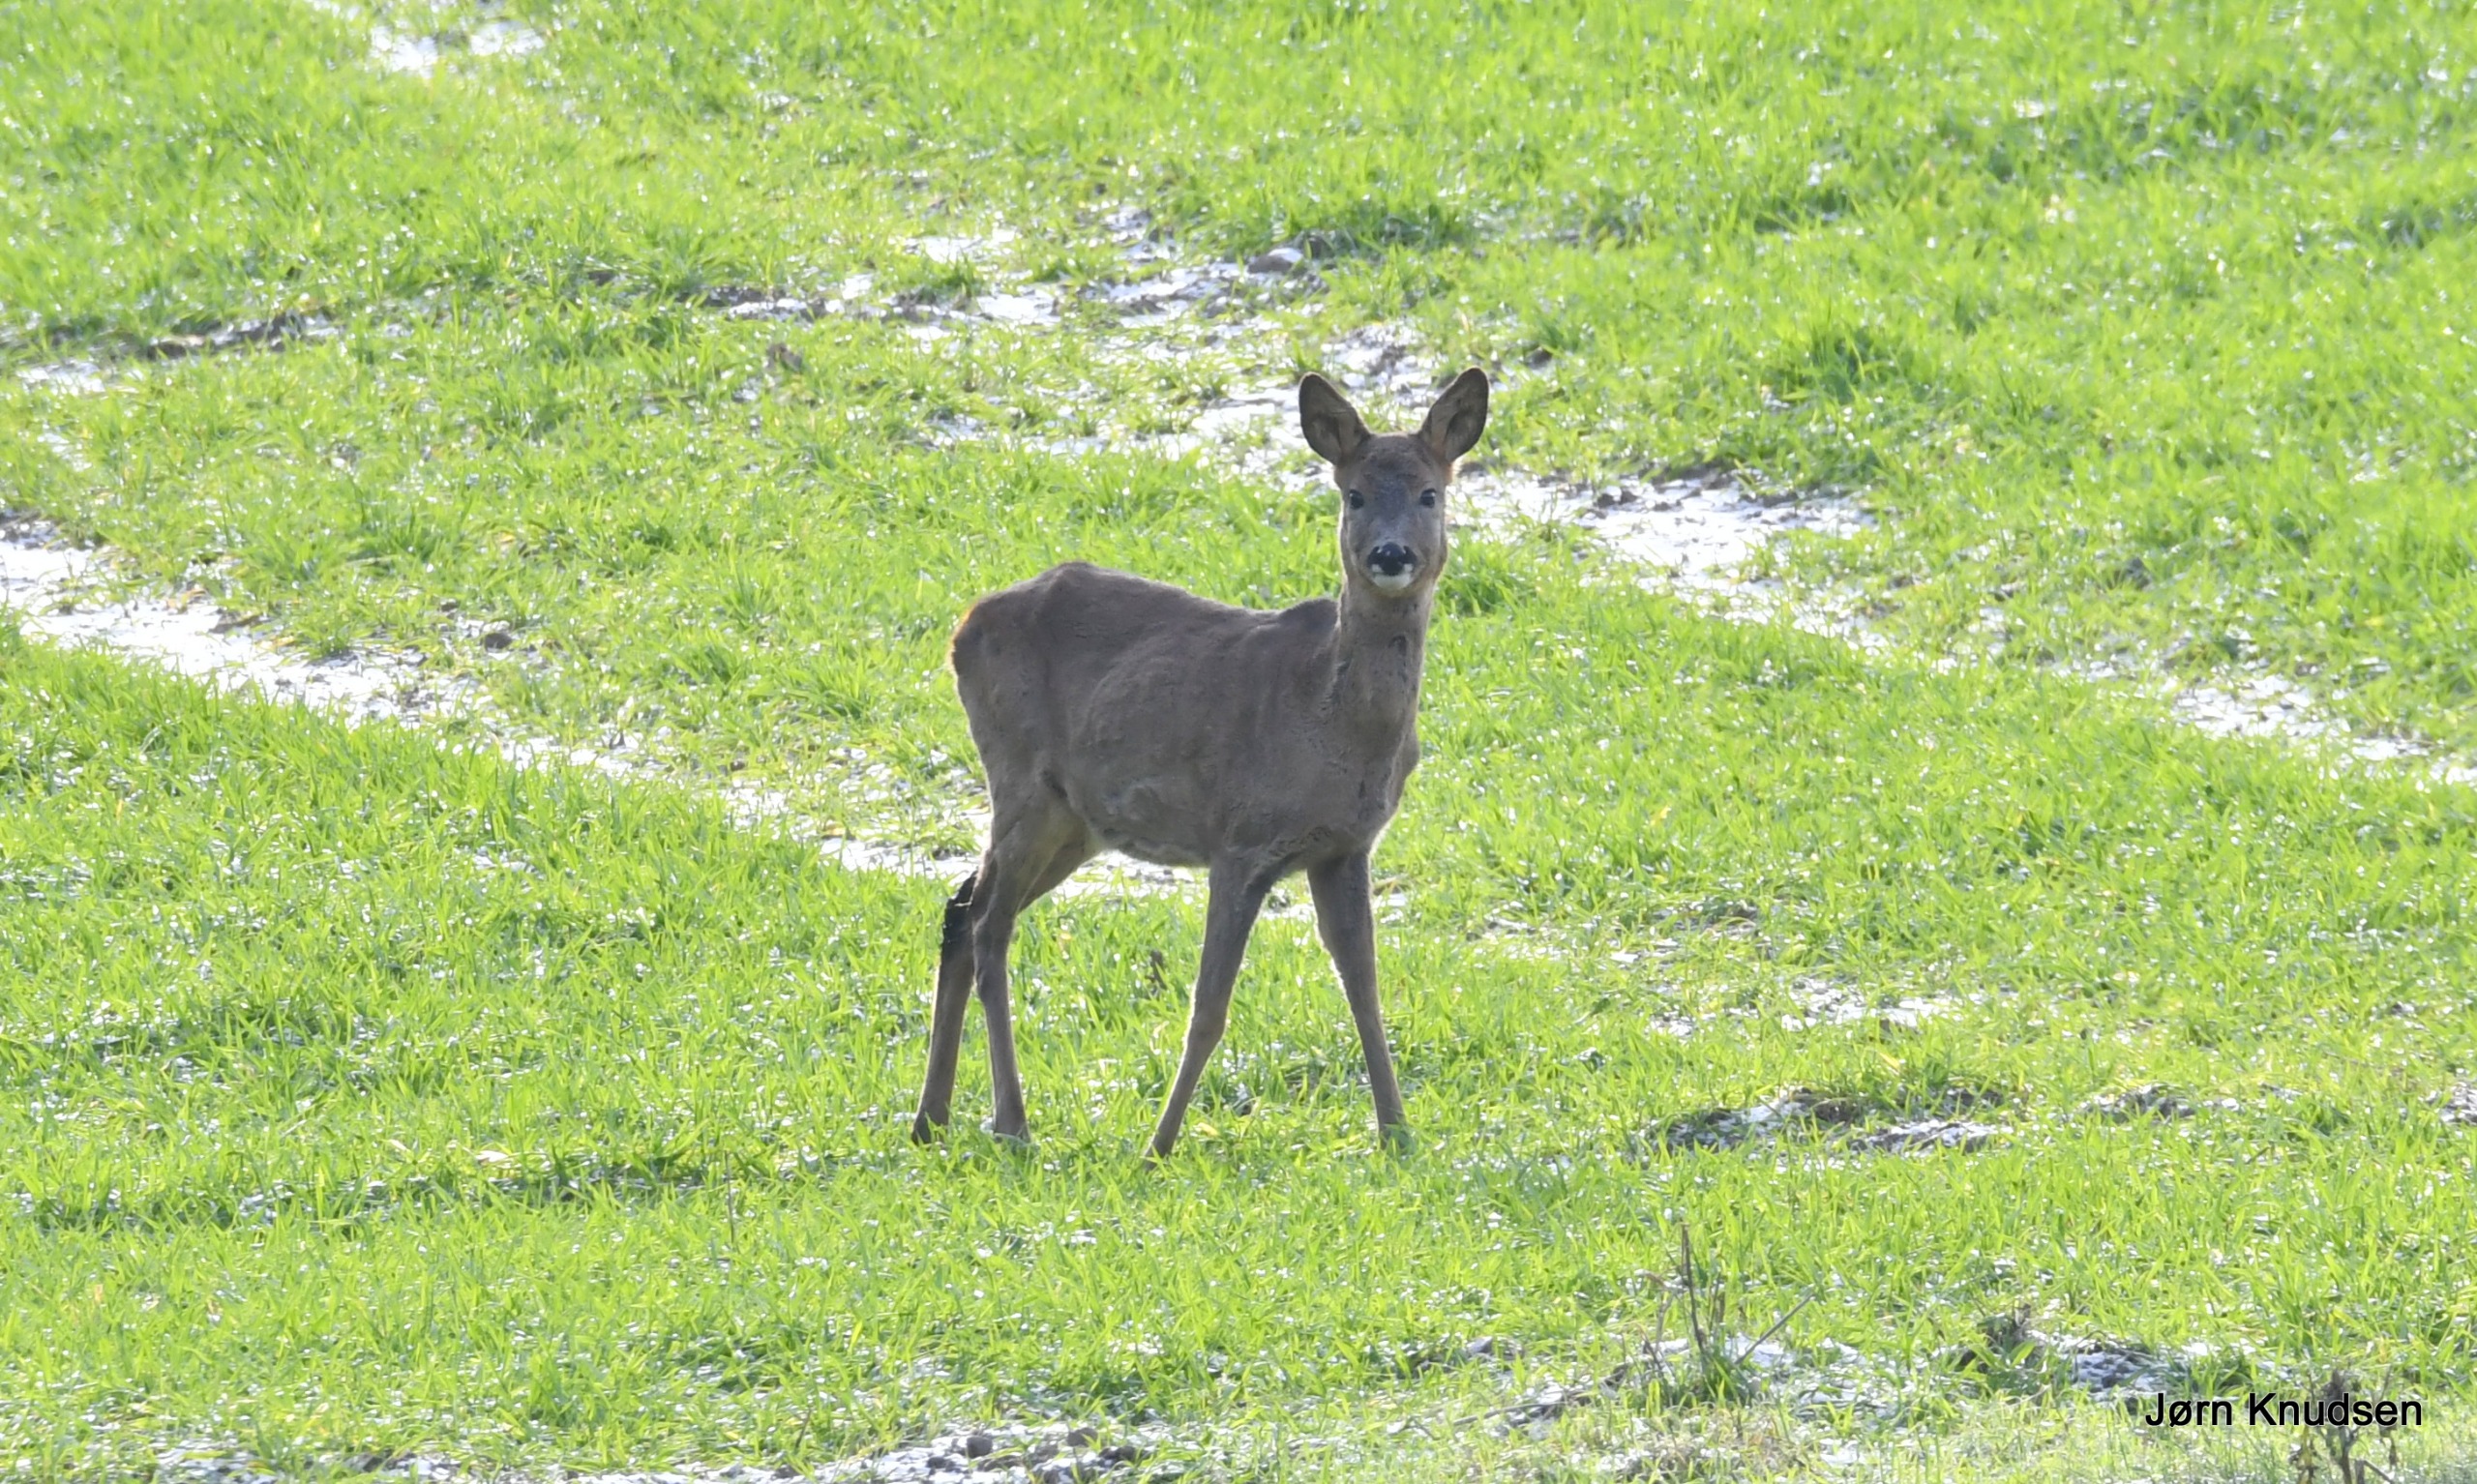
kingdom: Animalia
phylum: Chordata
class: Mammalia
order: Artiodactyla
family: Cervidae
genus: Capreolus
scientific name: Capreolus capreolus
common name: Rådyr
